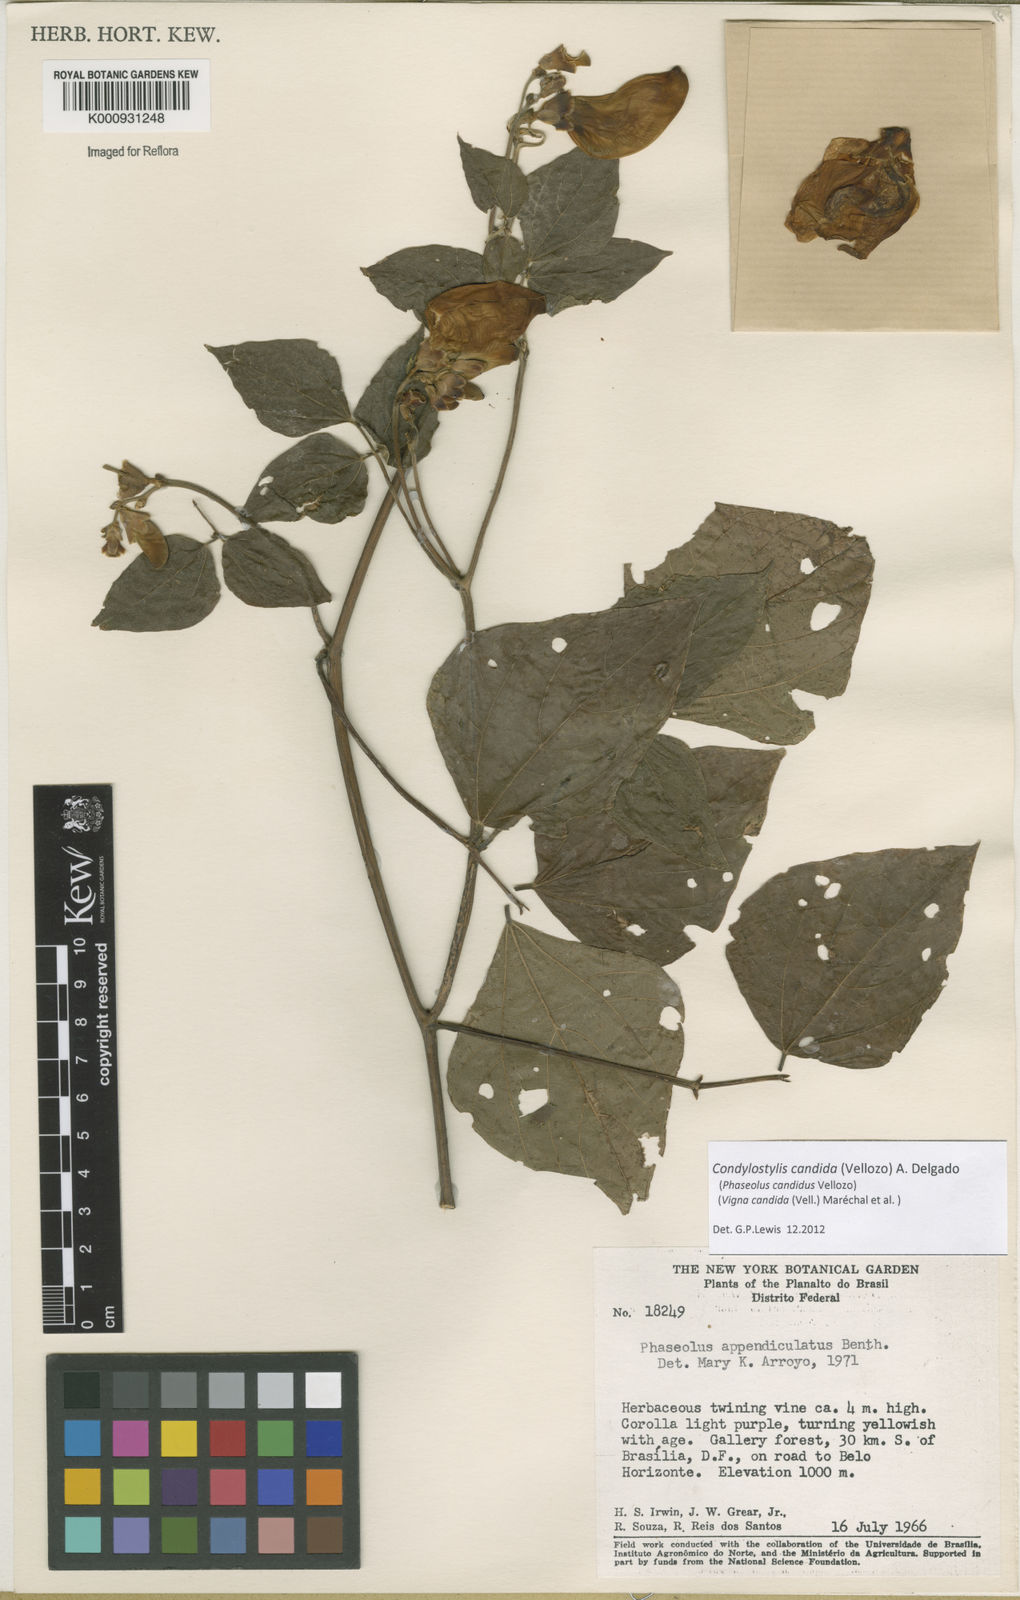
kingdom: Plantae
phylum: Tracheophyta
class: Magnoliopsida
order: Fabales
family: Fabaceae
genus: Condylostylis
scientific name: Condylostylis candida
